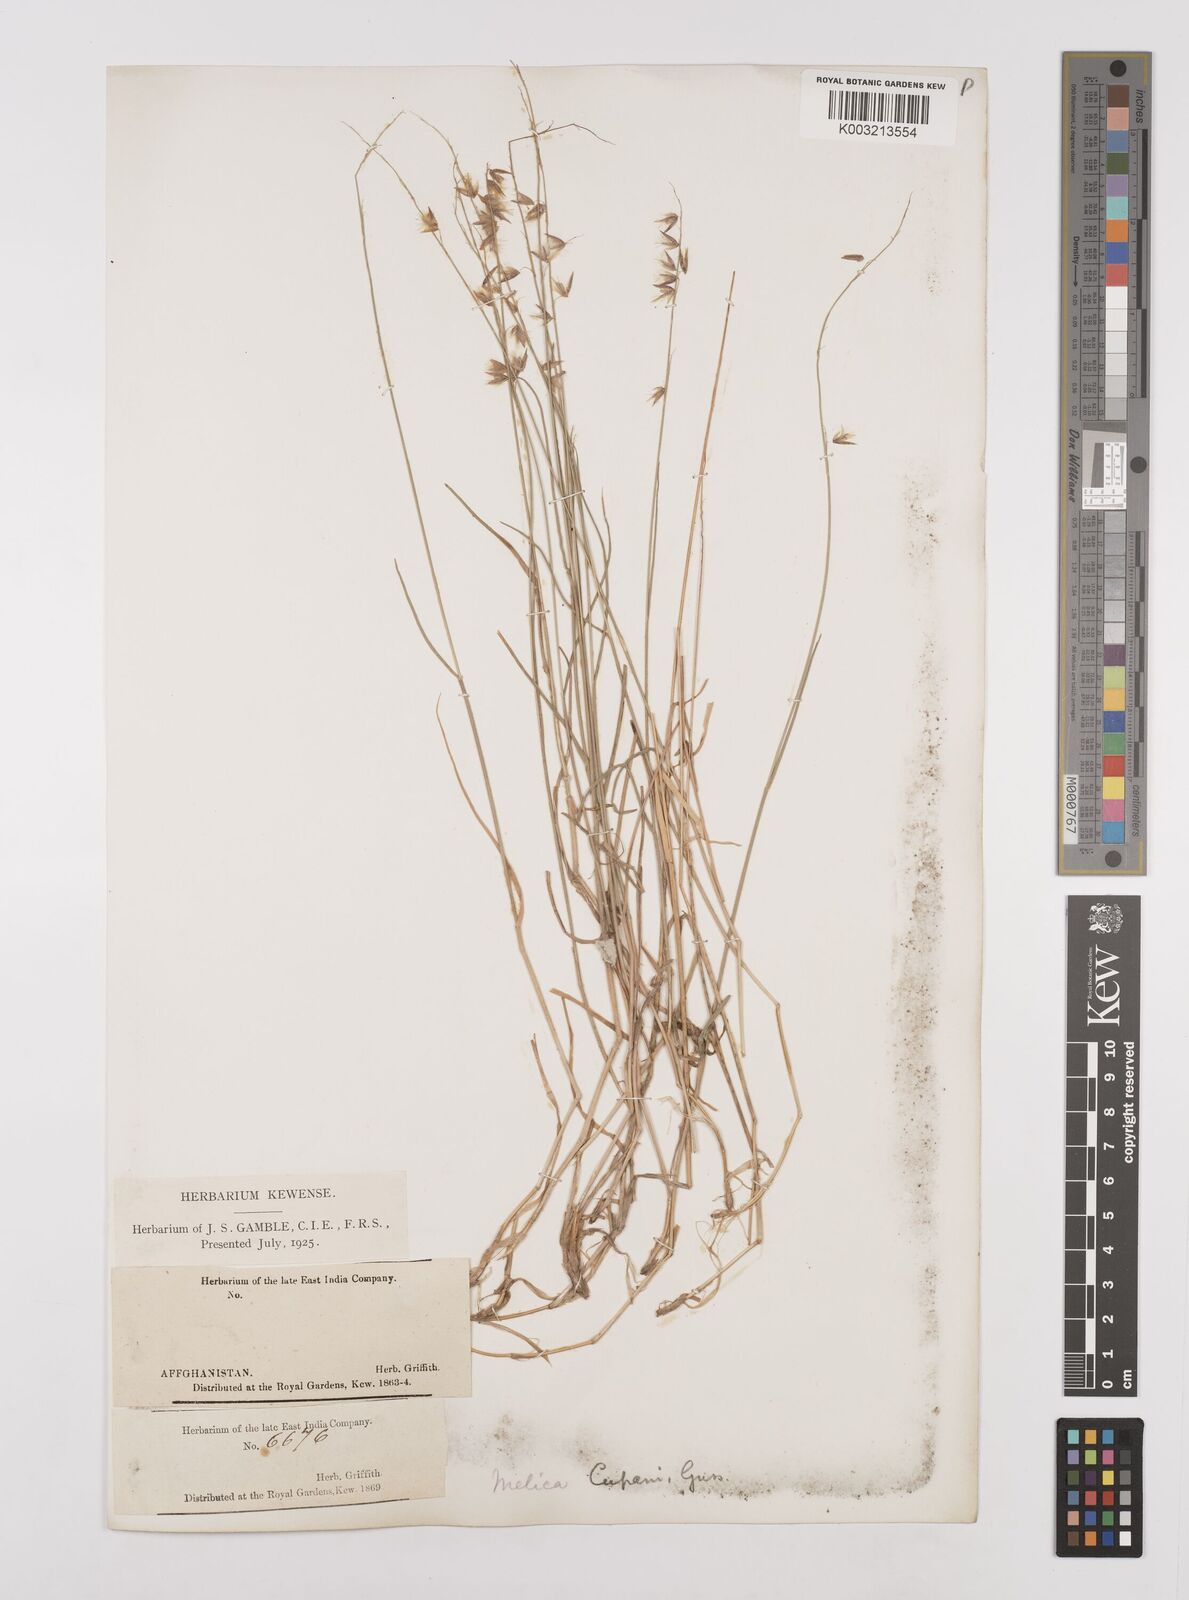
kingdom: Plantae
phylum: Tracheophyta
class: Liliopsida
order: Poales
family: Poaceae
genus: Melica
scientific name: Melica persica
